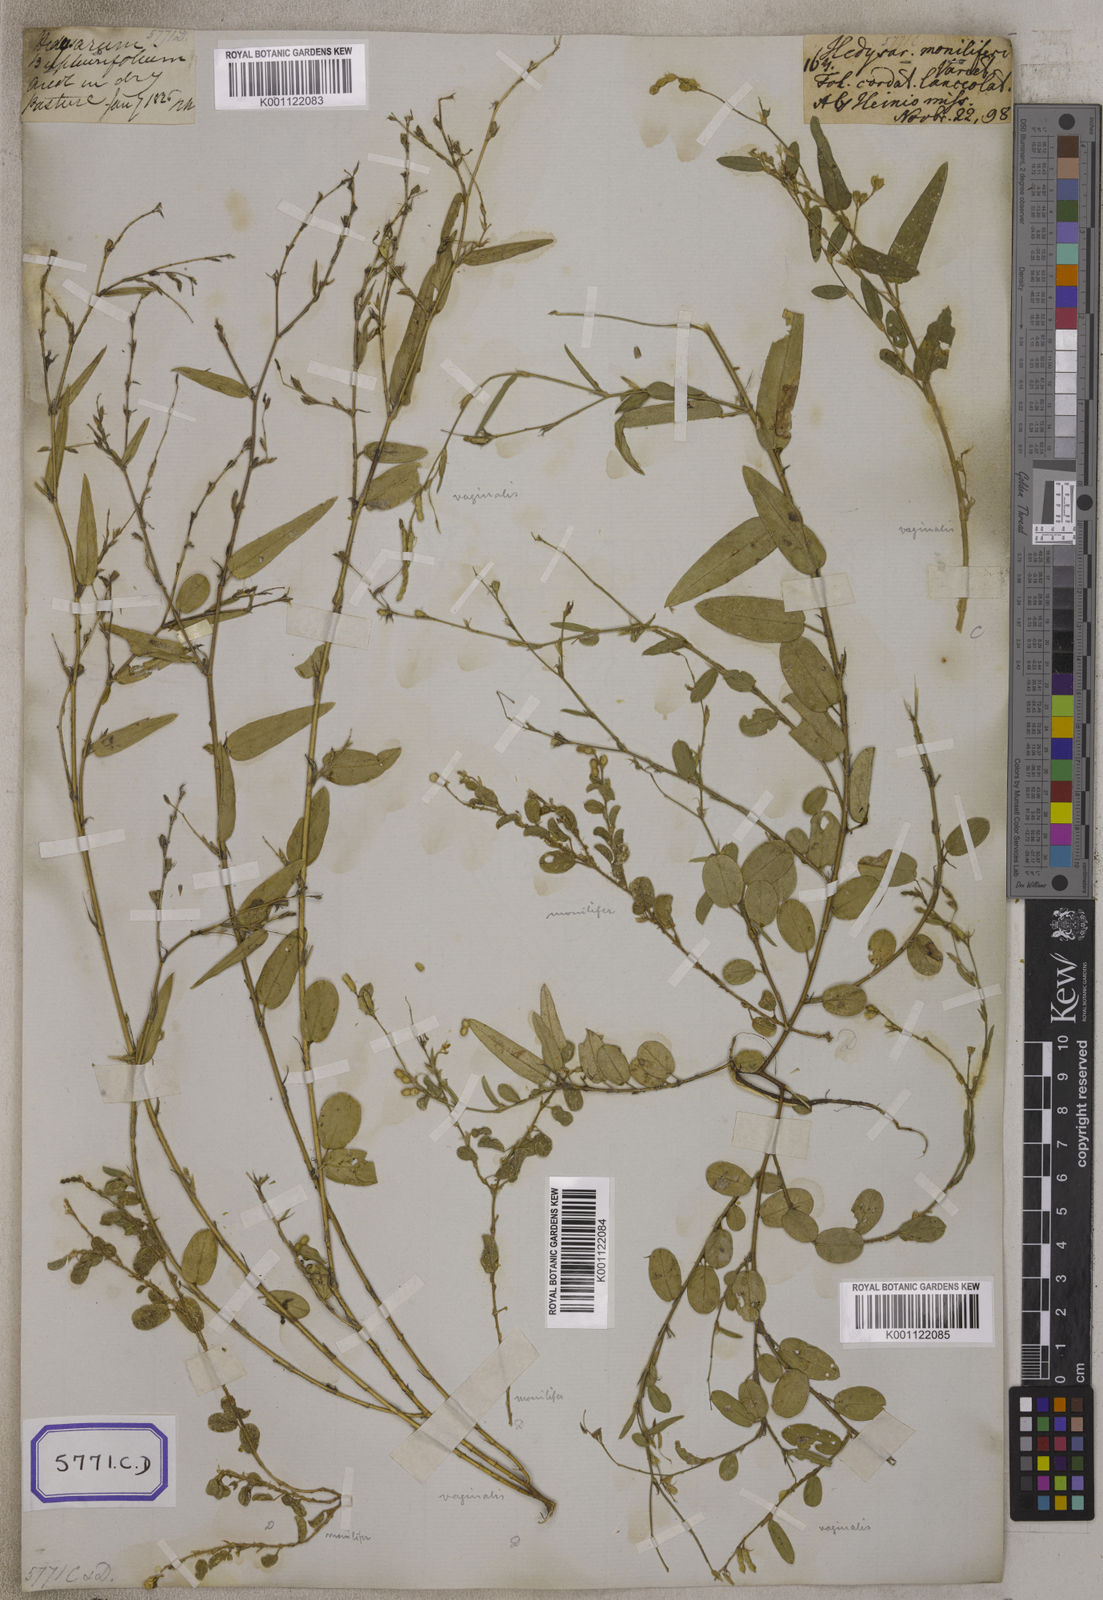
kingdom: Plantae
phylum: Tracheophyta
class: Magnoliopsida
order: Fabales
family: Fabaceae
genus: Alysicarpus
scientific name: Alysicarpus vaginalis
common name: White moneywort
